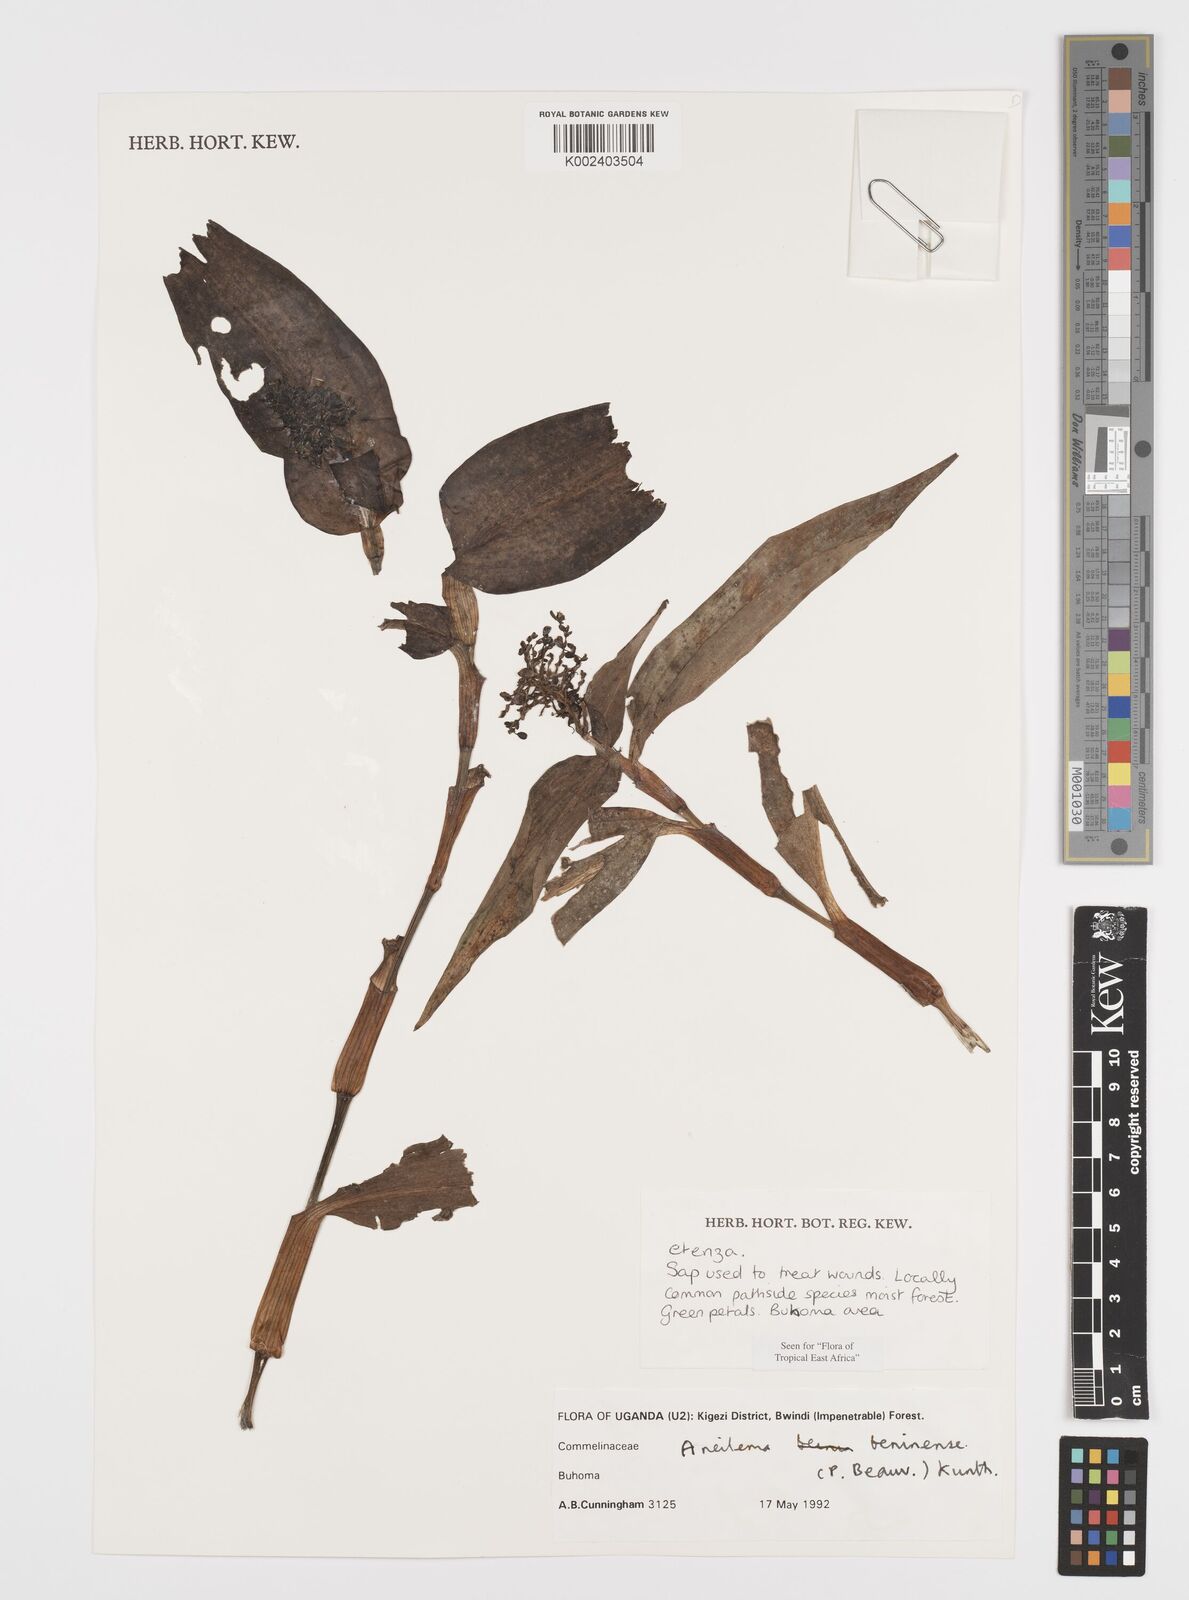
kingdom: Plantae
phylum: Tracheophyta
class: Liliopsida
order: Commelinales
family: Commelinaceae
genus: Aneilema
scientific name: Aneilema beniniense
